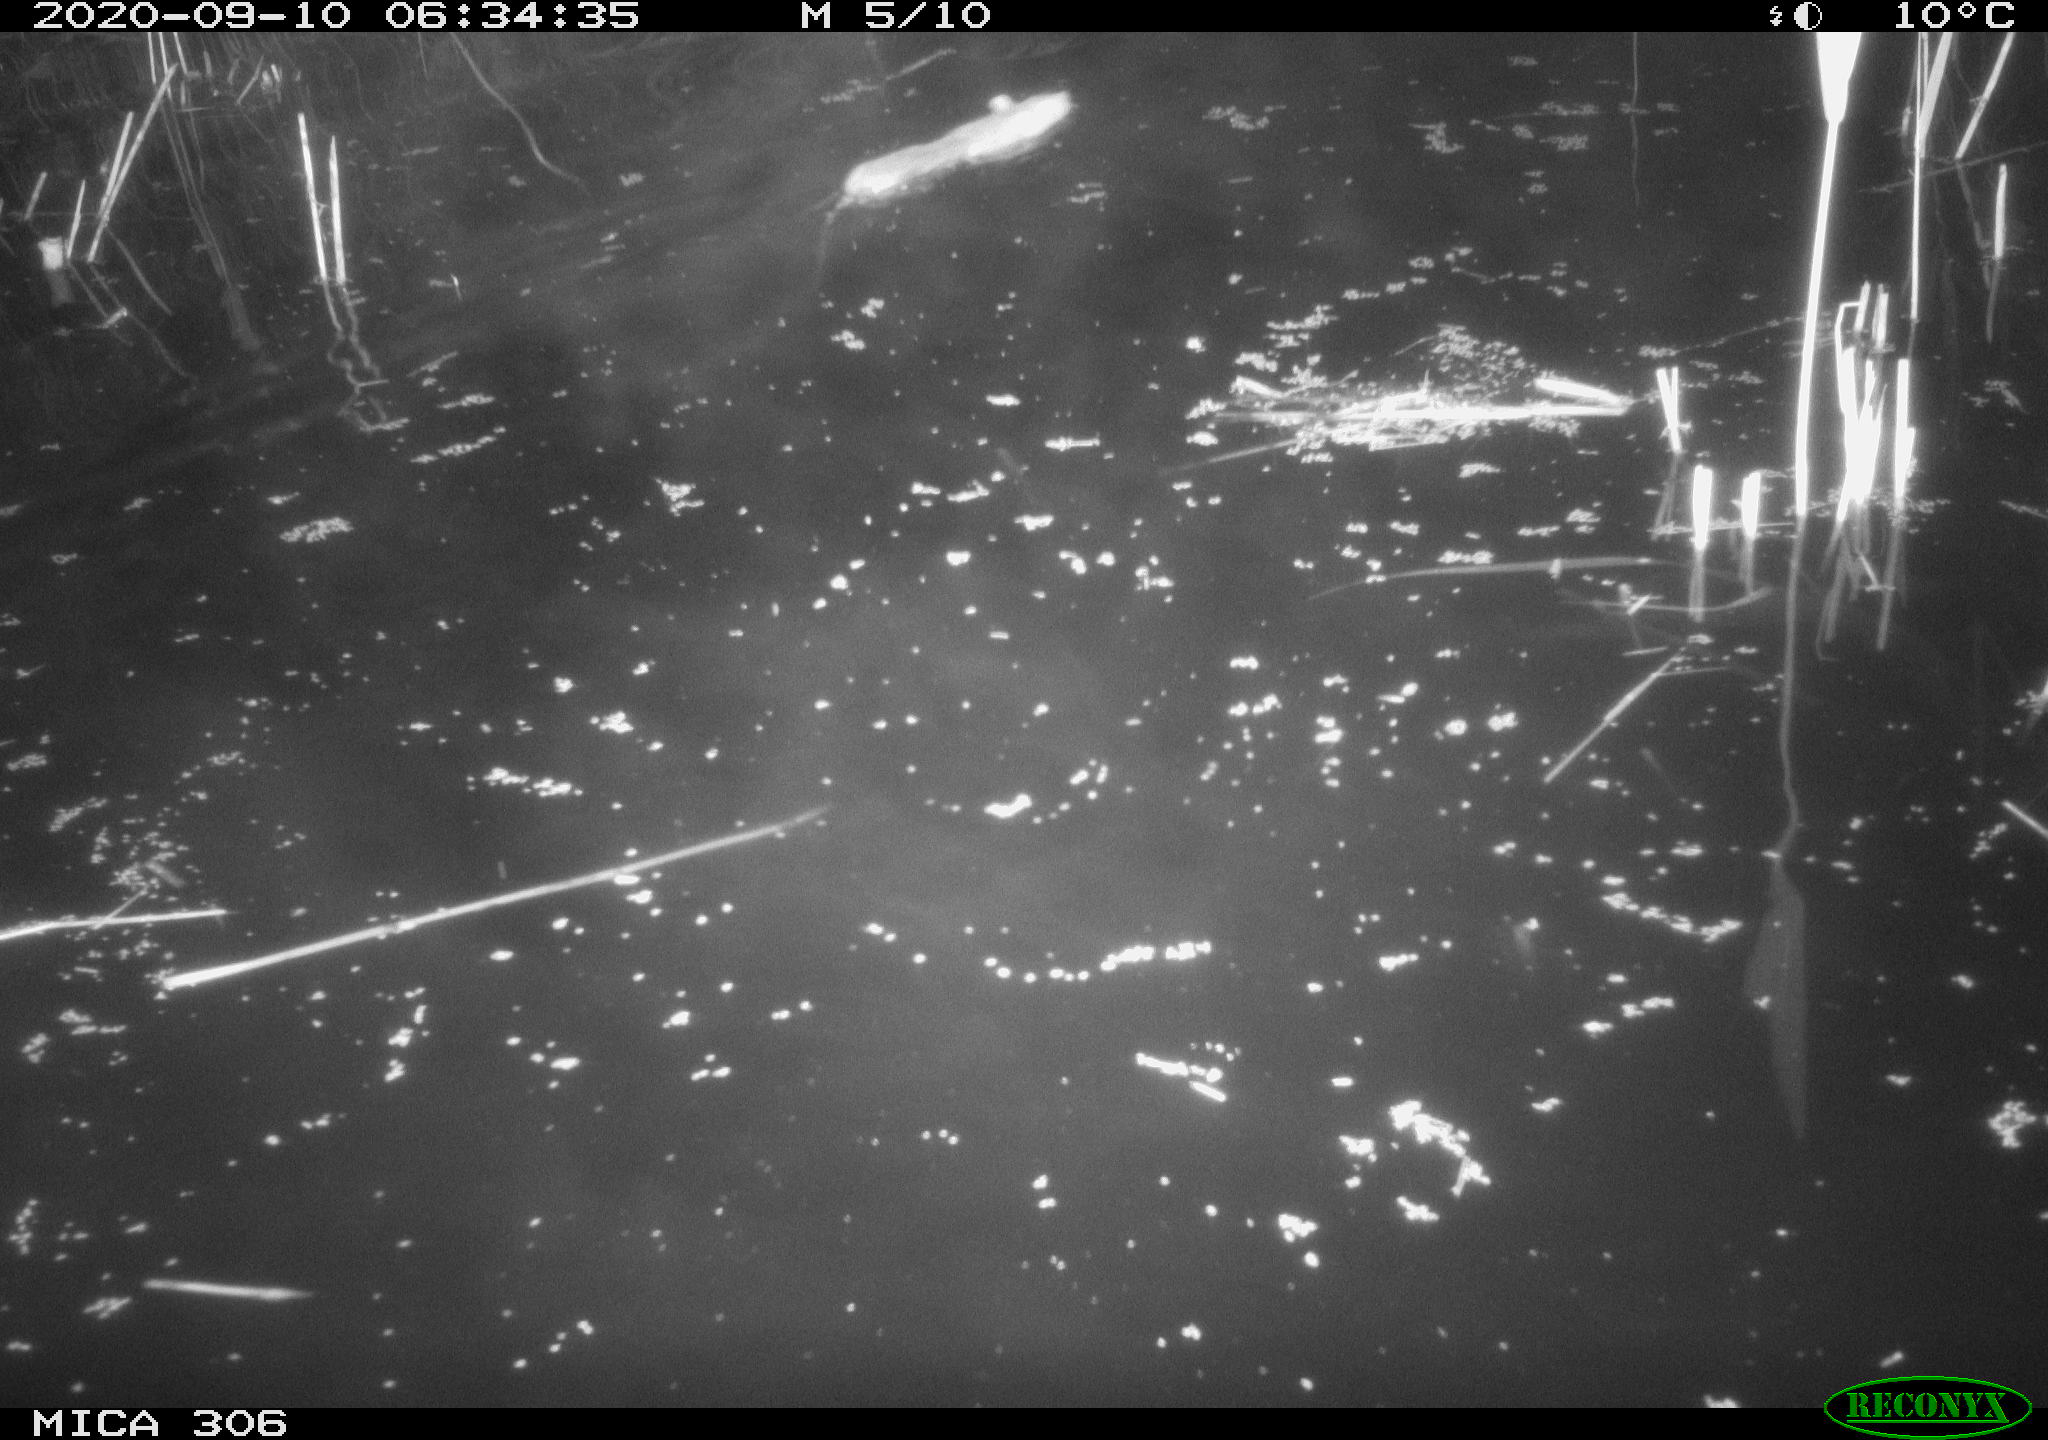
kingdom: Animalia
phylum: Chordata
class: Mammalia
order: Rodentia
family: Muridae
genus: Rattus
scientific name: Rattus norvegicus
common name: Brown rat
